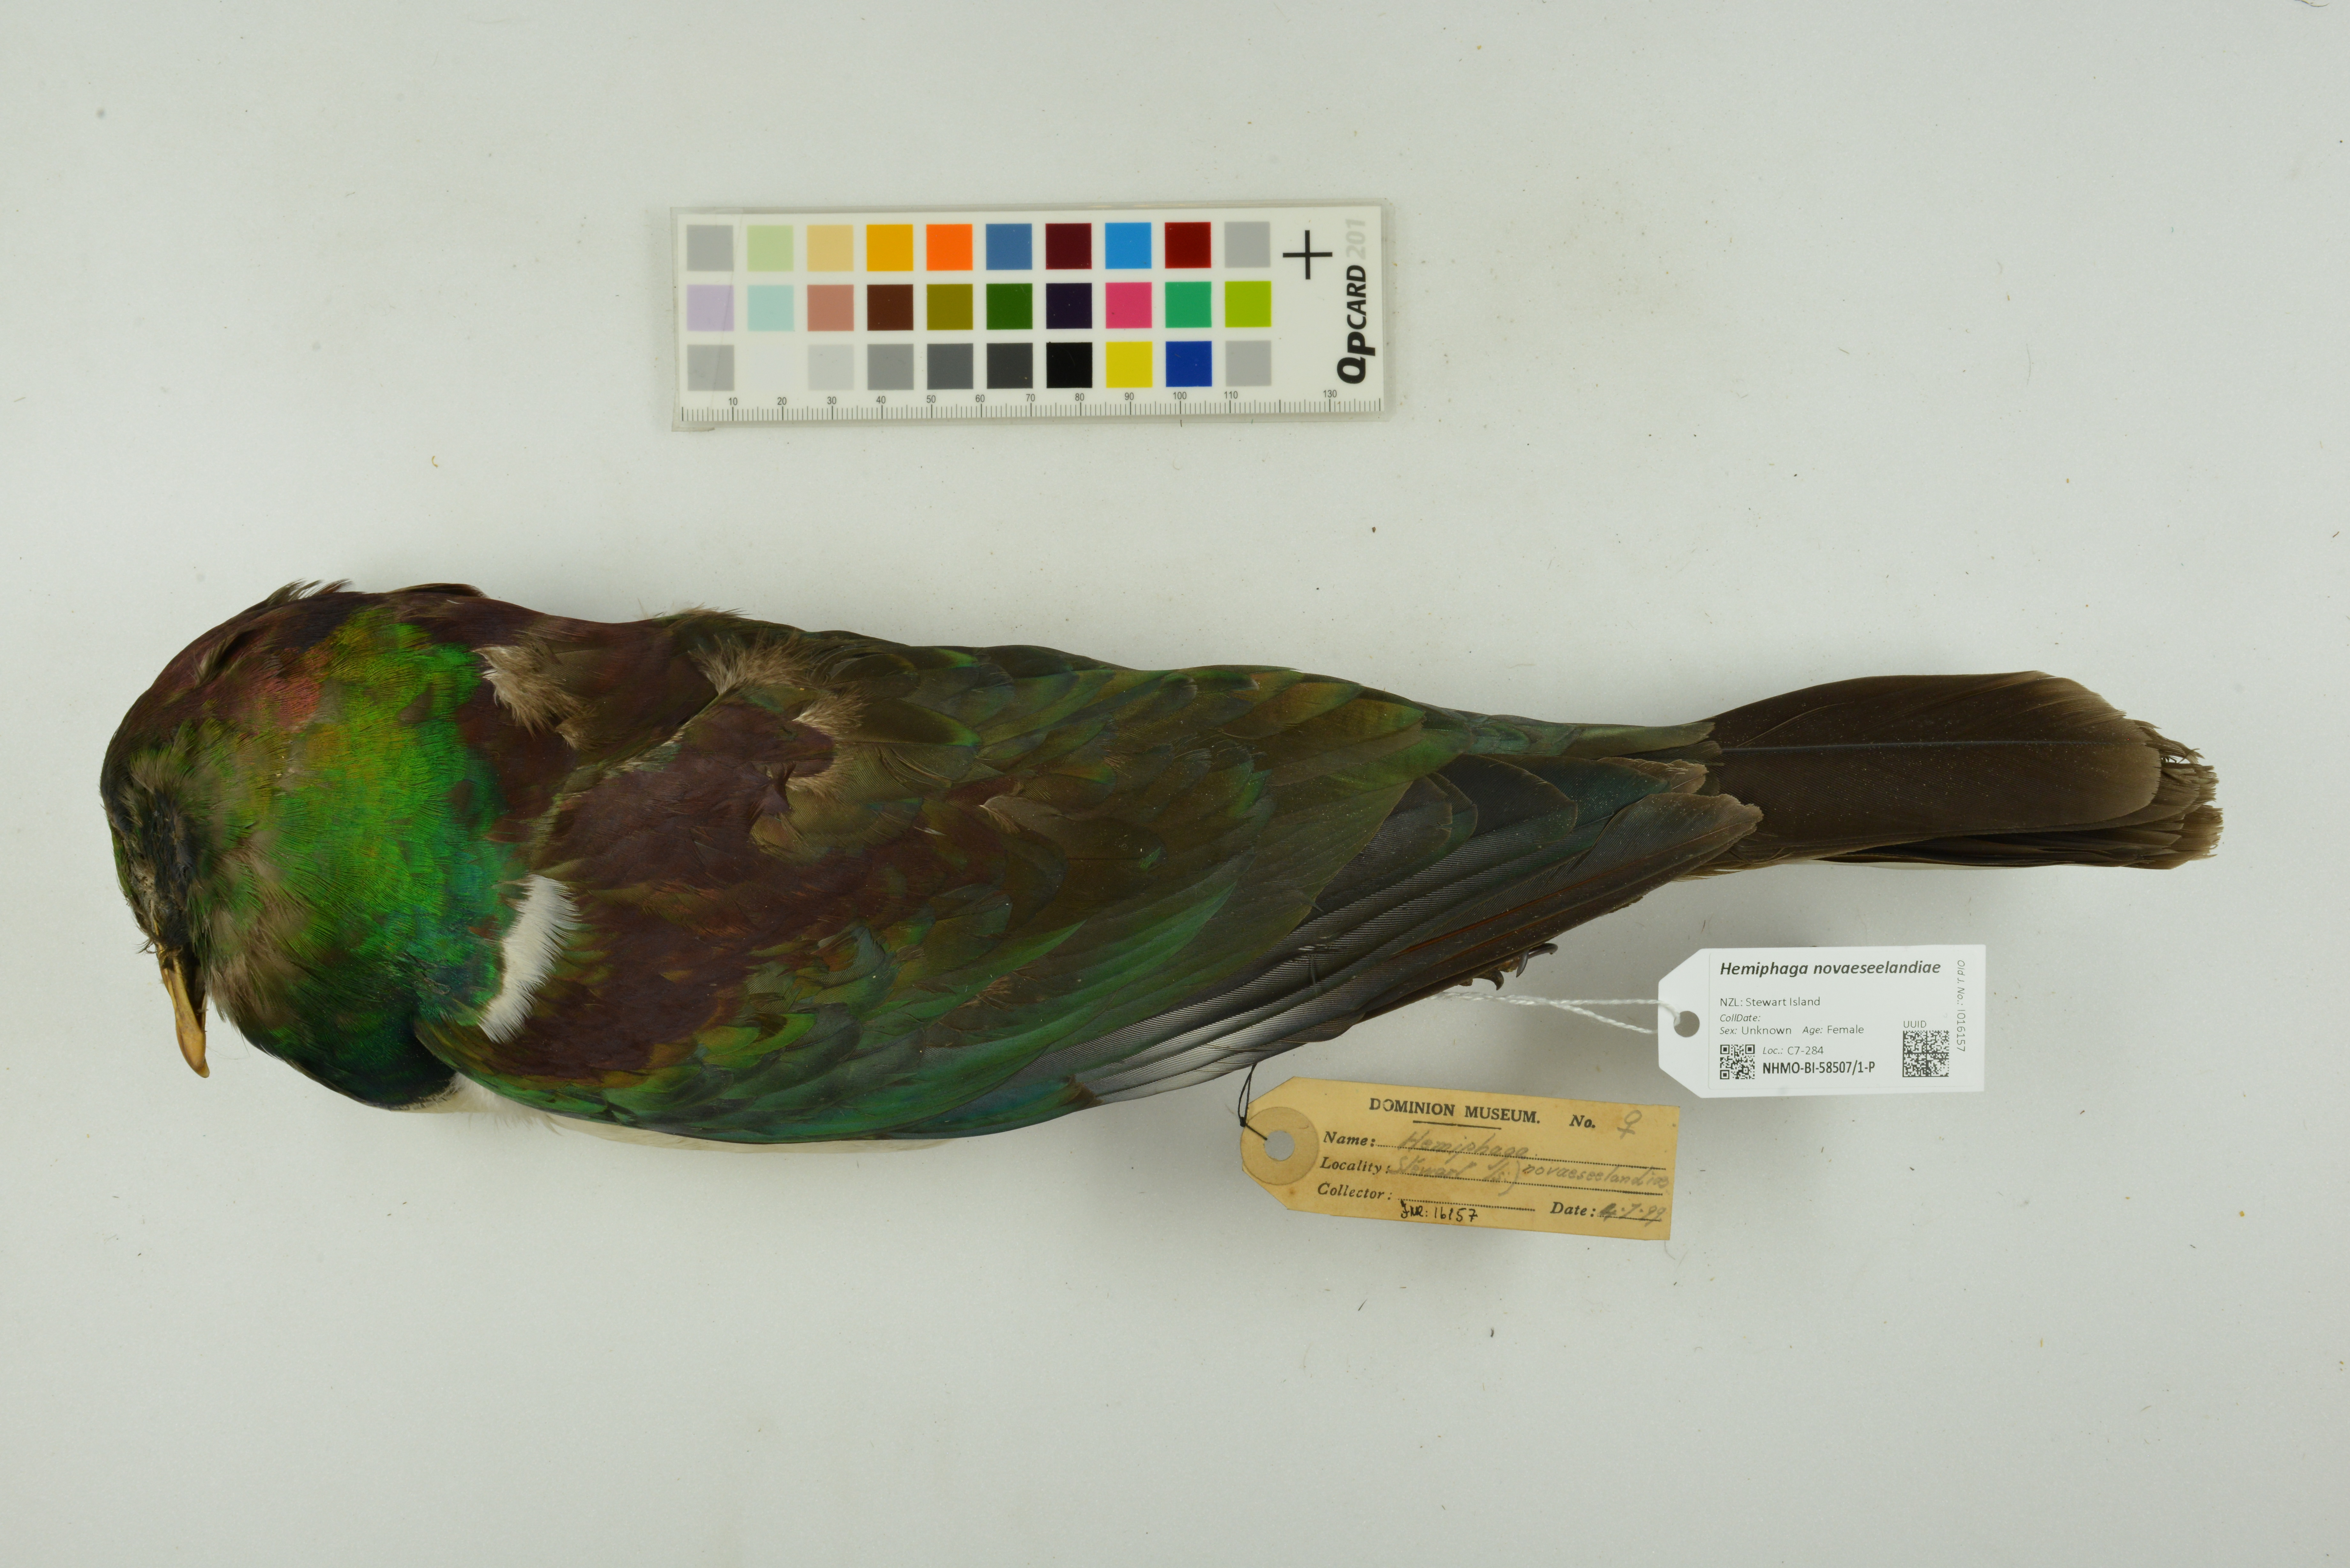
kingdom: Animalia
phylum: Chordata
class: Aves
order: Columbiformes
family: Columbidae
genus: Hemiphaga
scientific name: Hemiphaga novaeseelandiae
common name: New zealand pigeon
